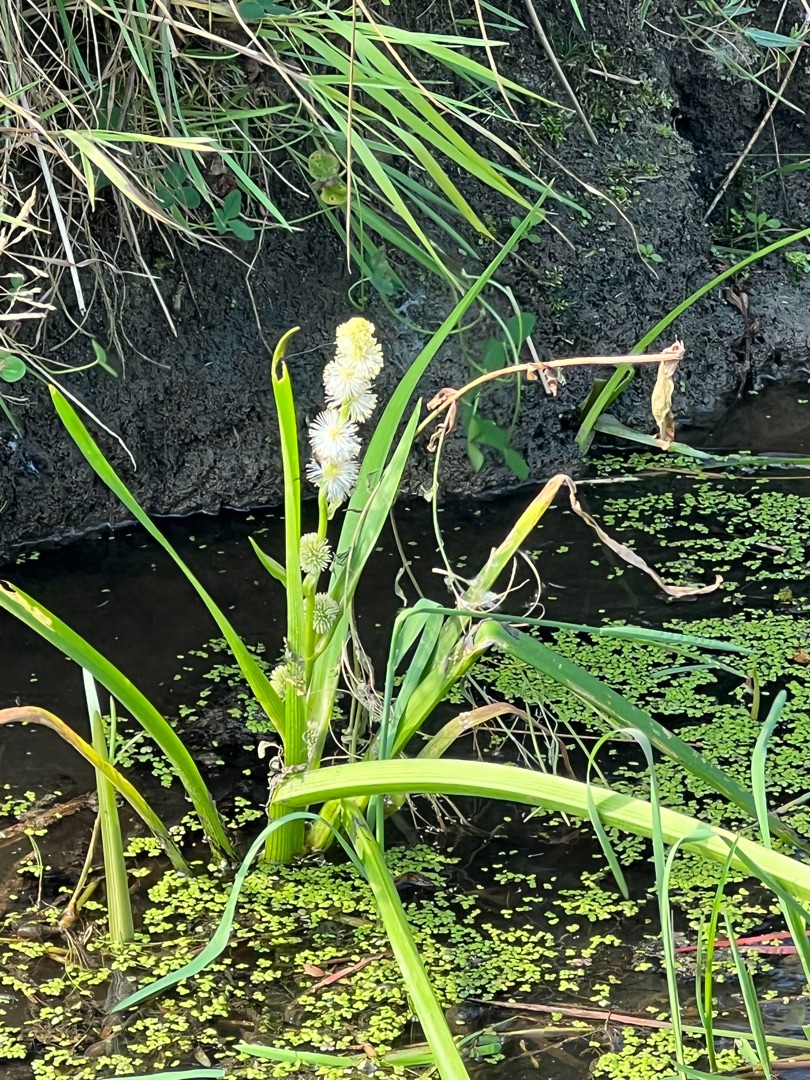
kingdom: Plantae
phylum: Tracheophyta
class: Liliopsida
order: Poales
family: Typhaceae
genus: Sparganium
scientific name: Sparganium emersum
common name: Enkelt pindsvineknop
